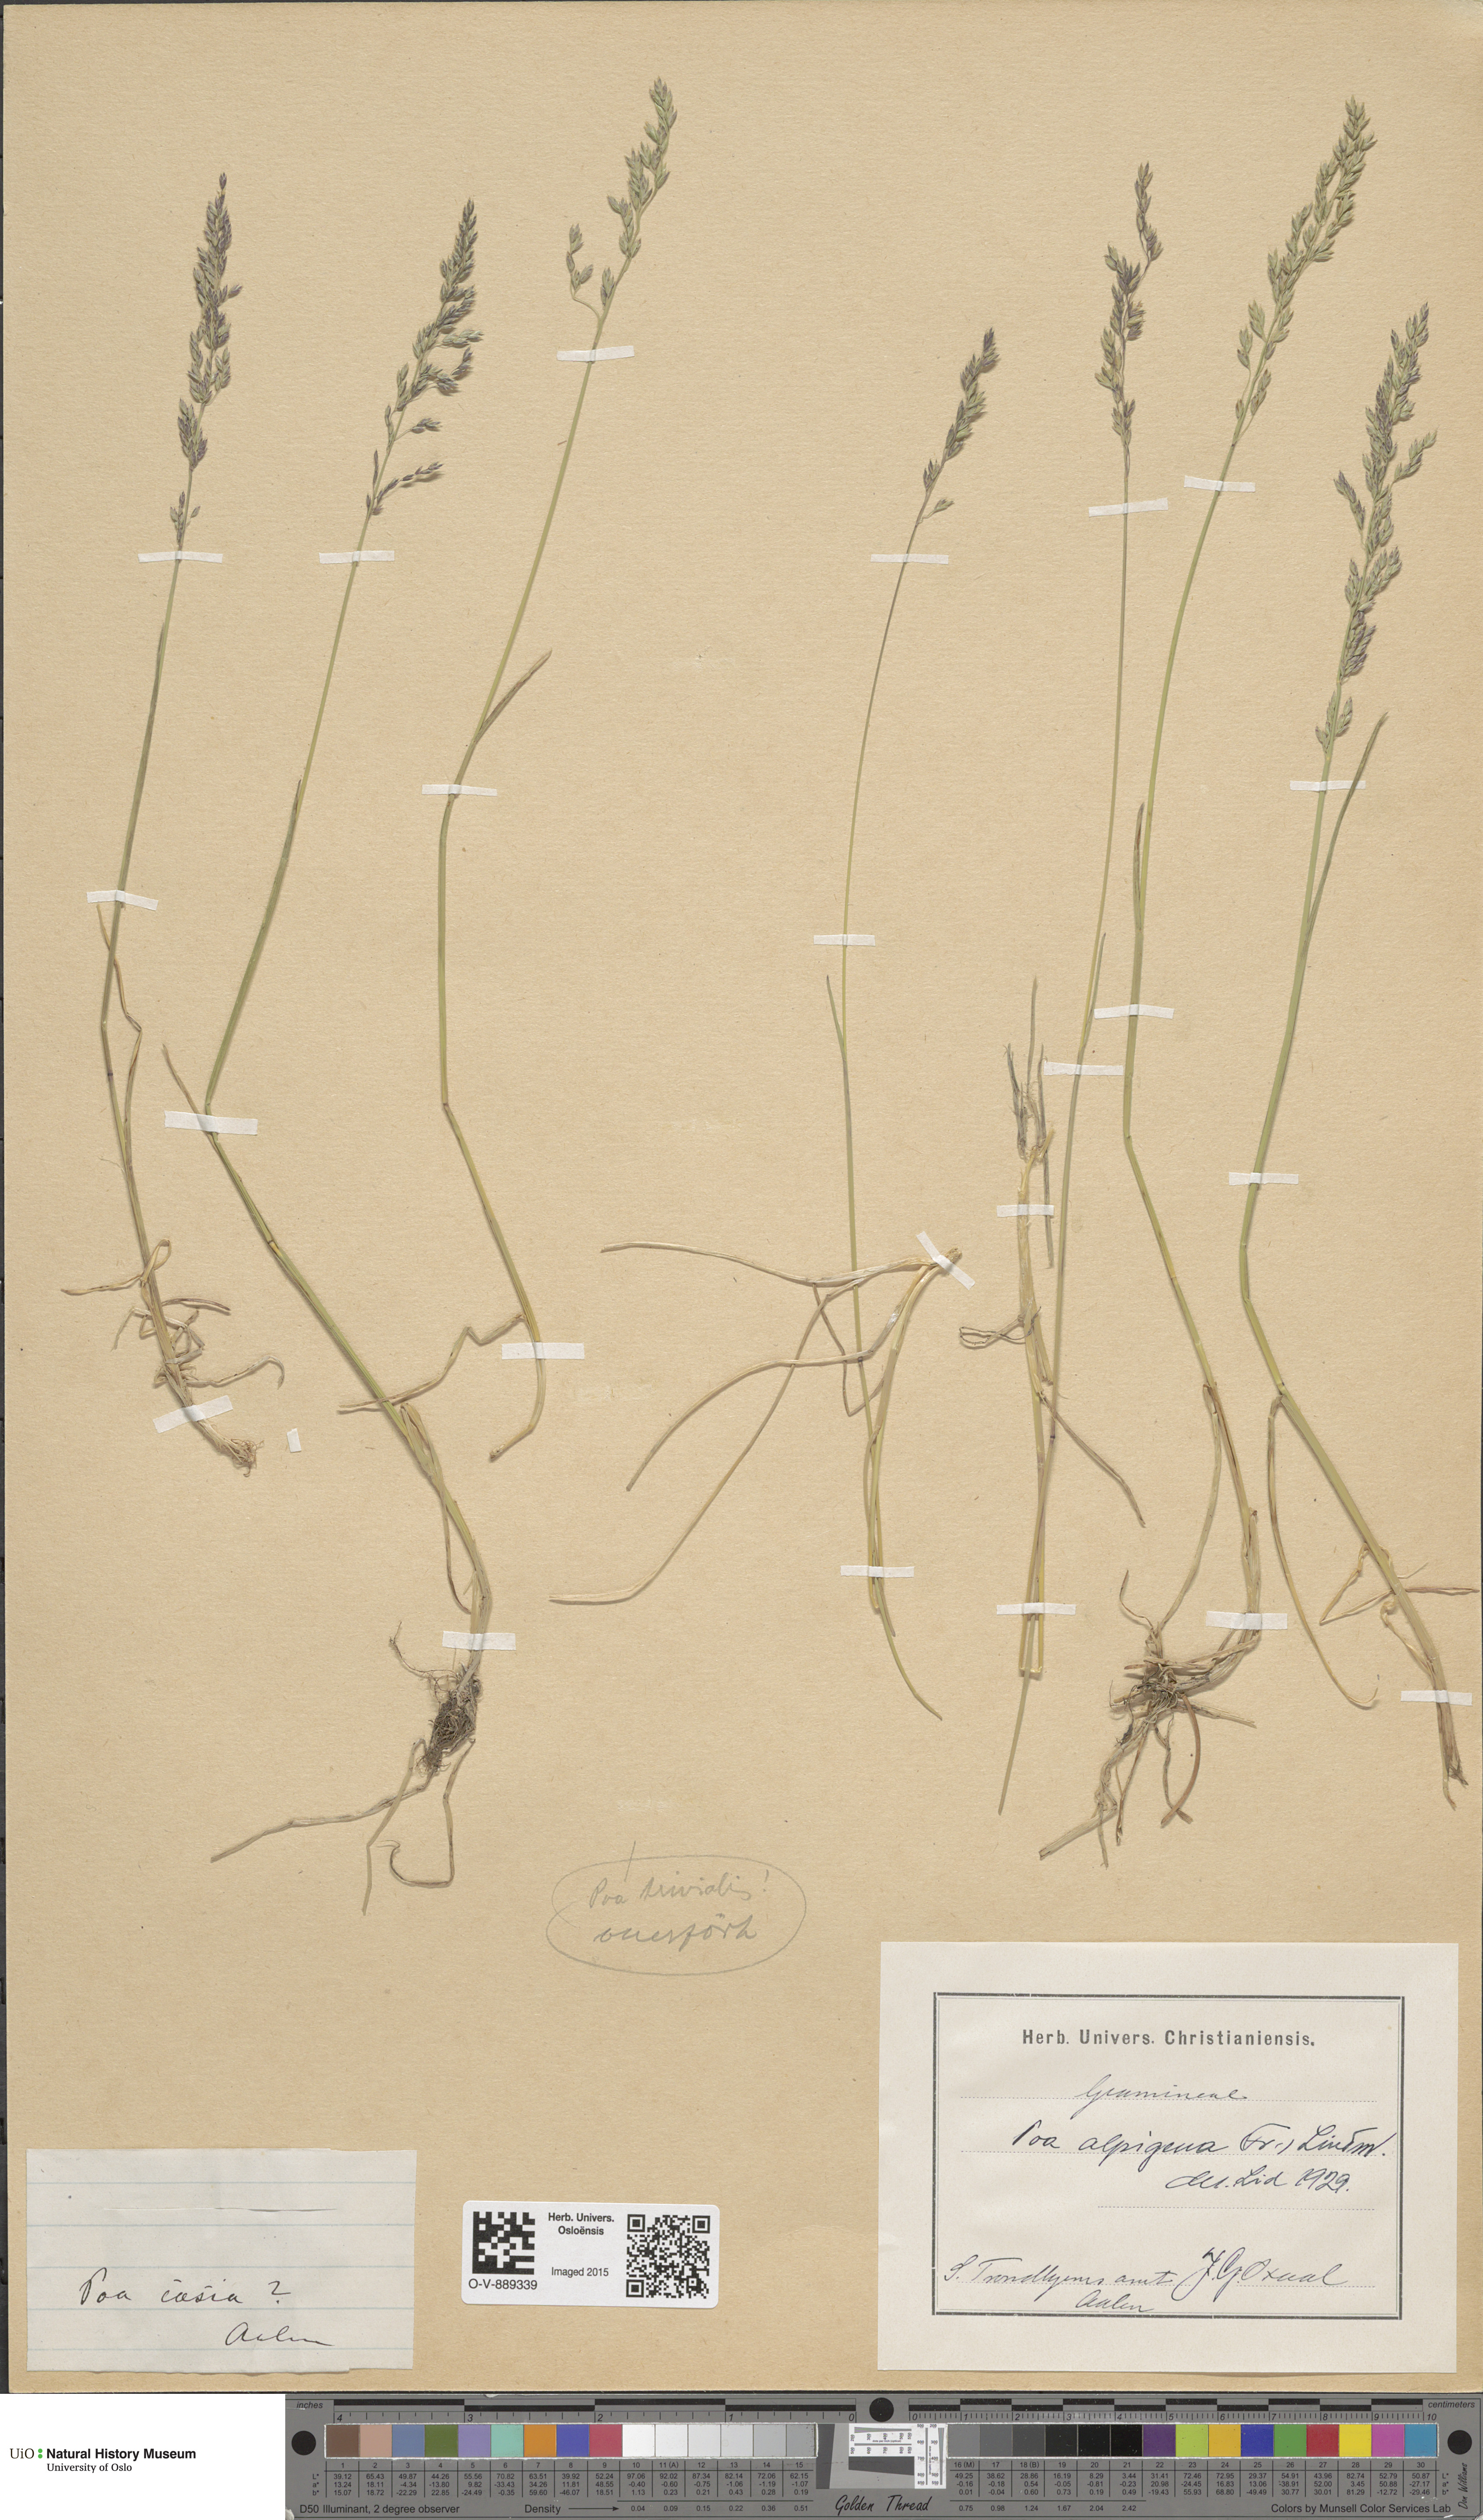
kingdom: Plantae
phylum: Tracheophyta
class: Liliopsida
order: Poales
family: Poaceae
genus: Poa
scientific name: Poa alpigena
